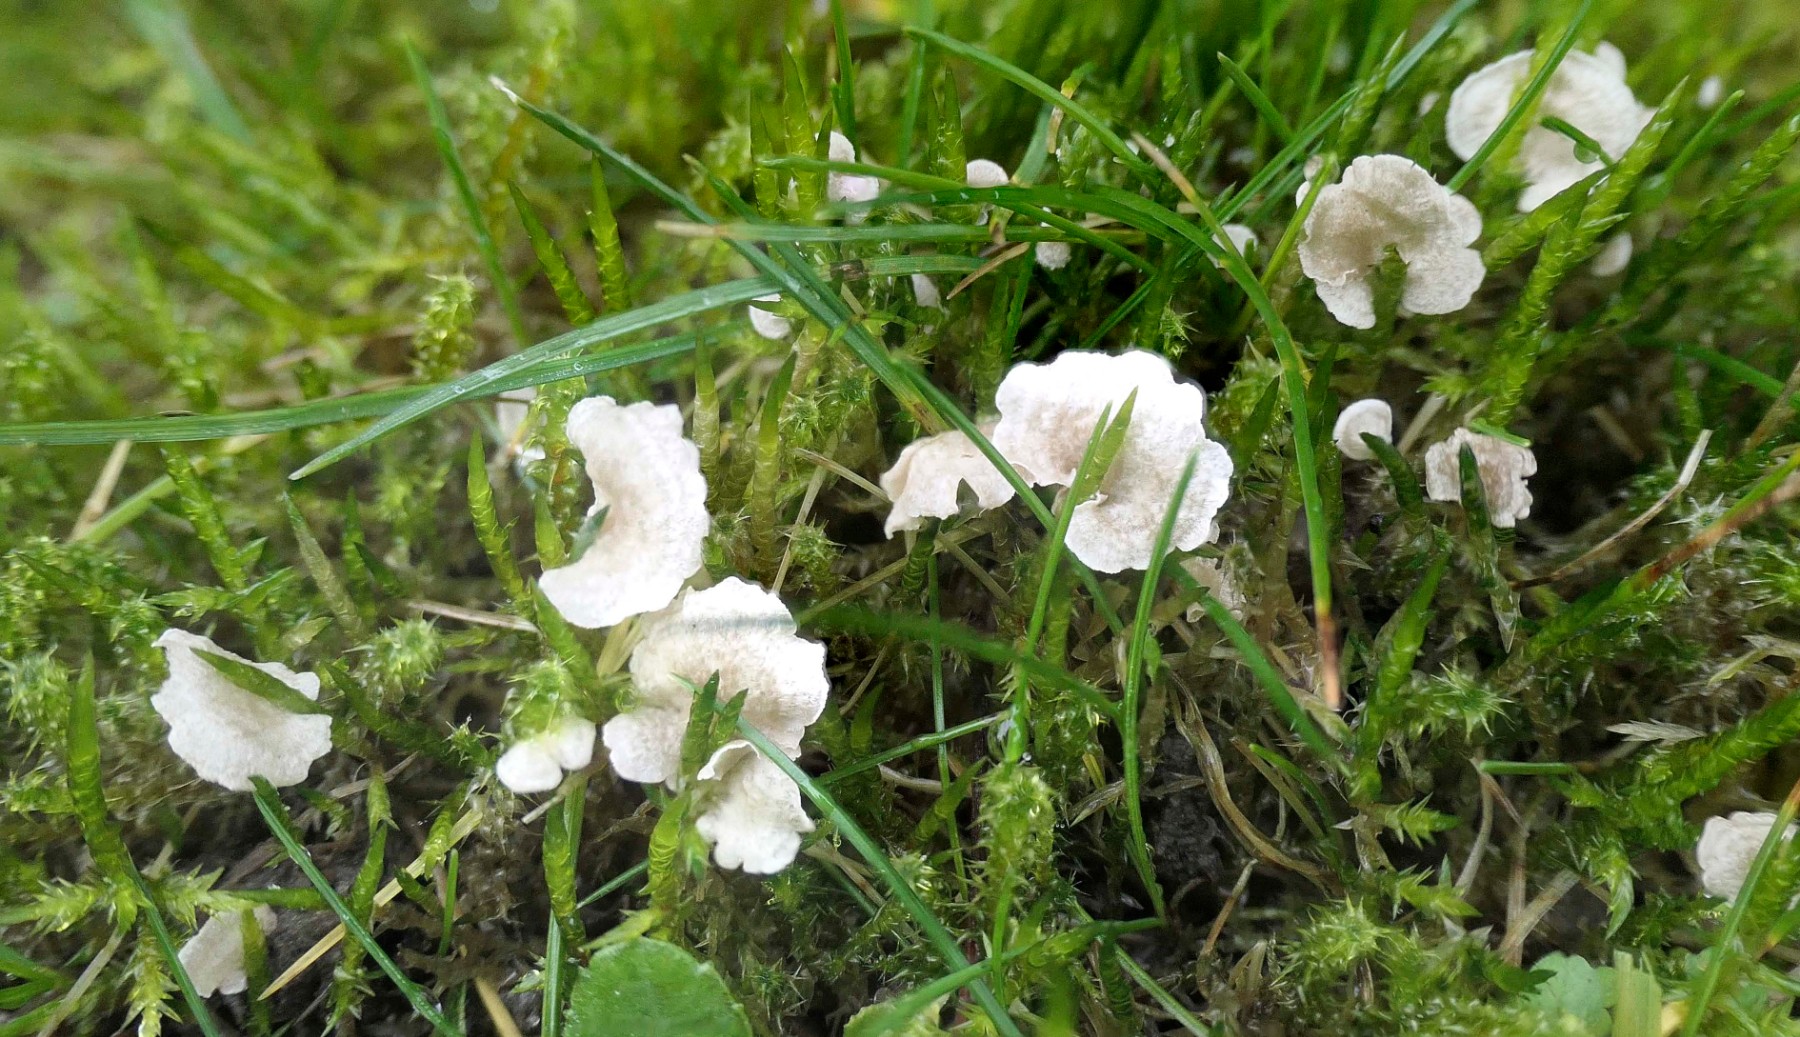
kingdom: Fungi
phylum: Basidiomycota
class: Agaricomycetes
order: Agaricales
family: Hygrophoraceae
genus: Arrhenia
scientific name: Arrhenia retiruga
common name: lille fontænehat
